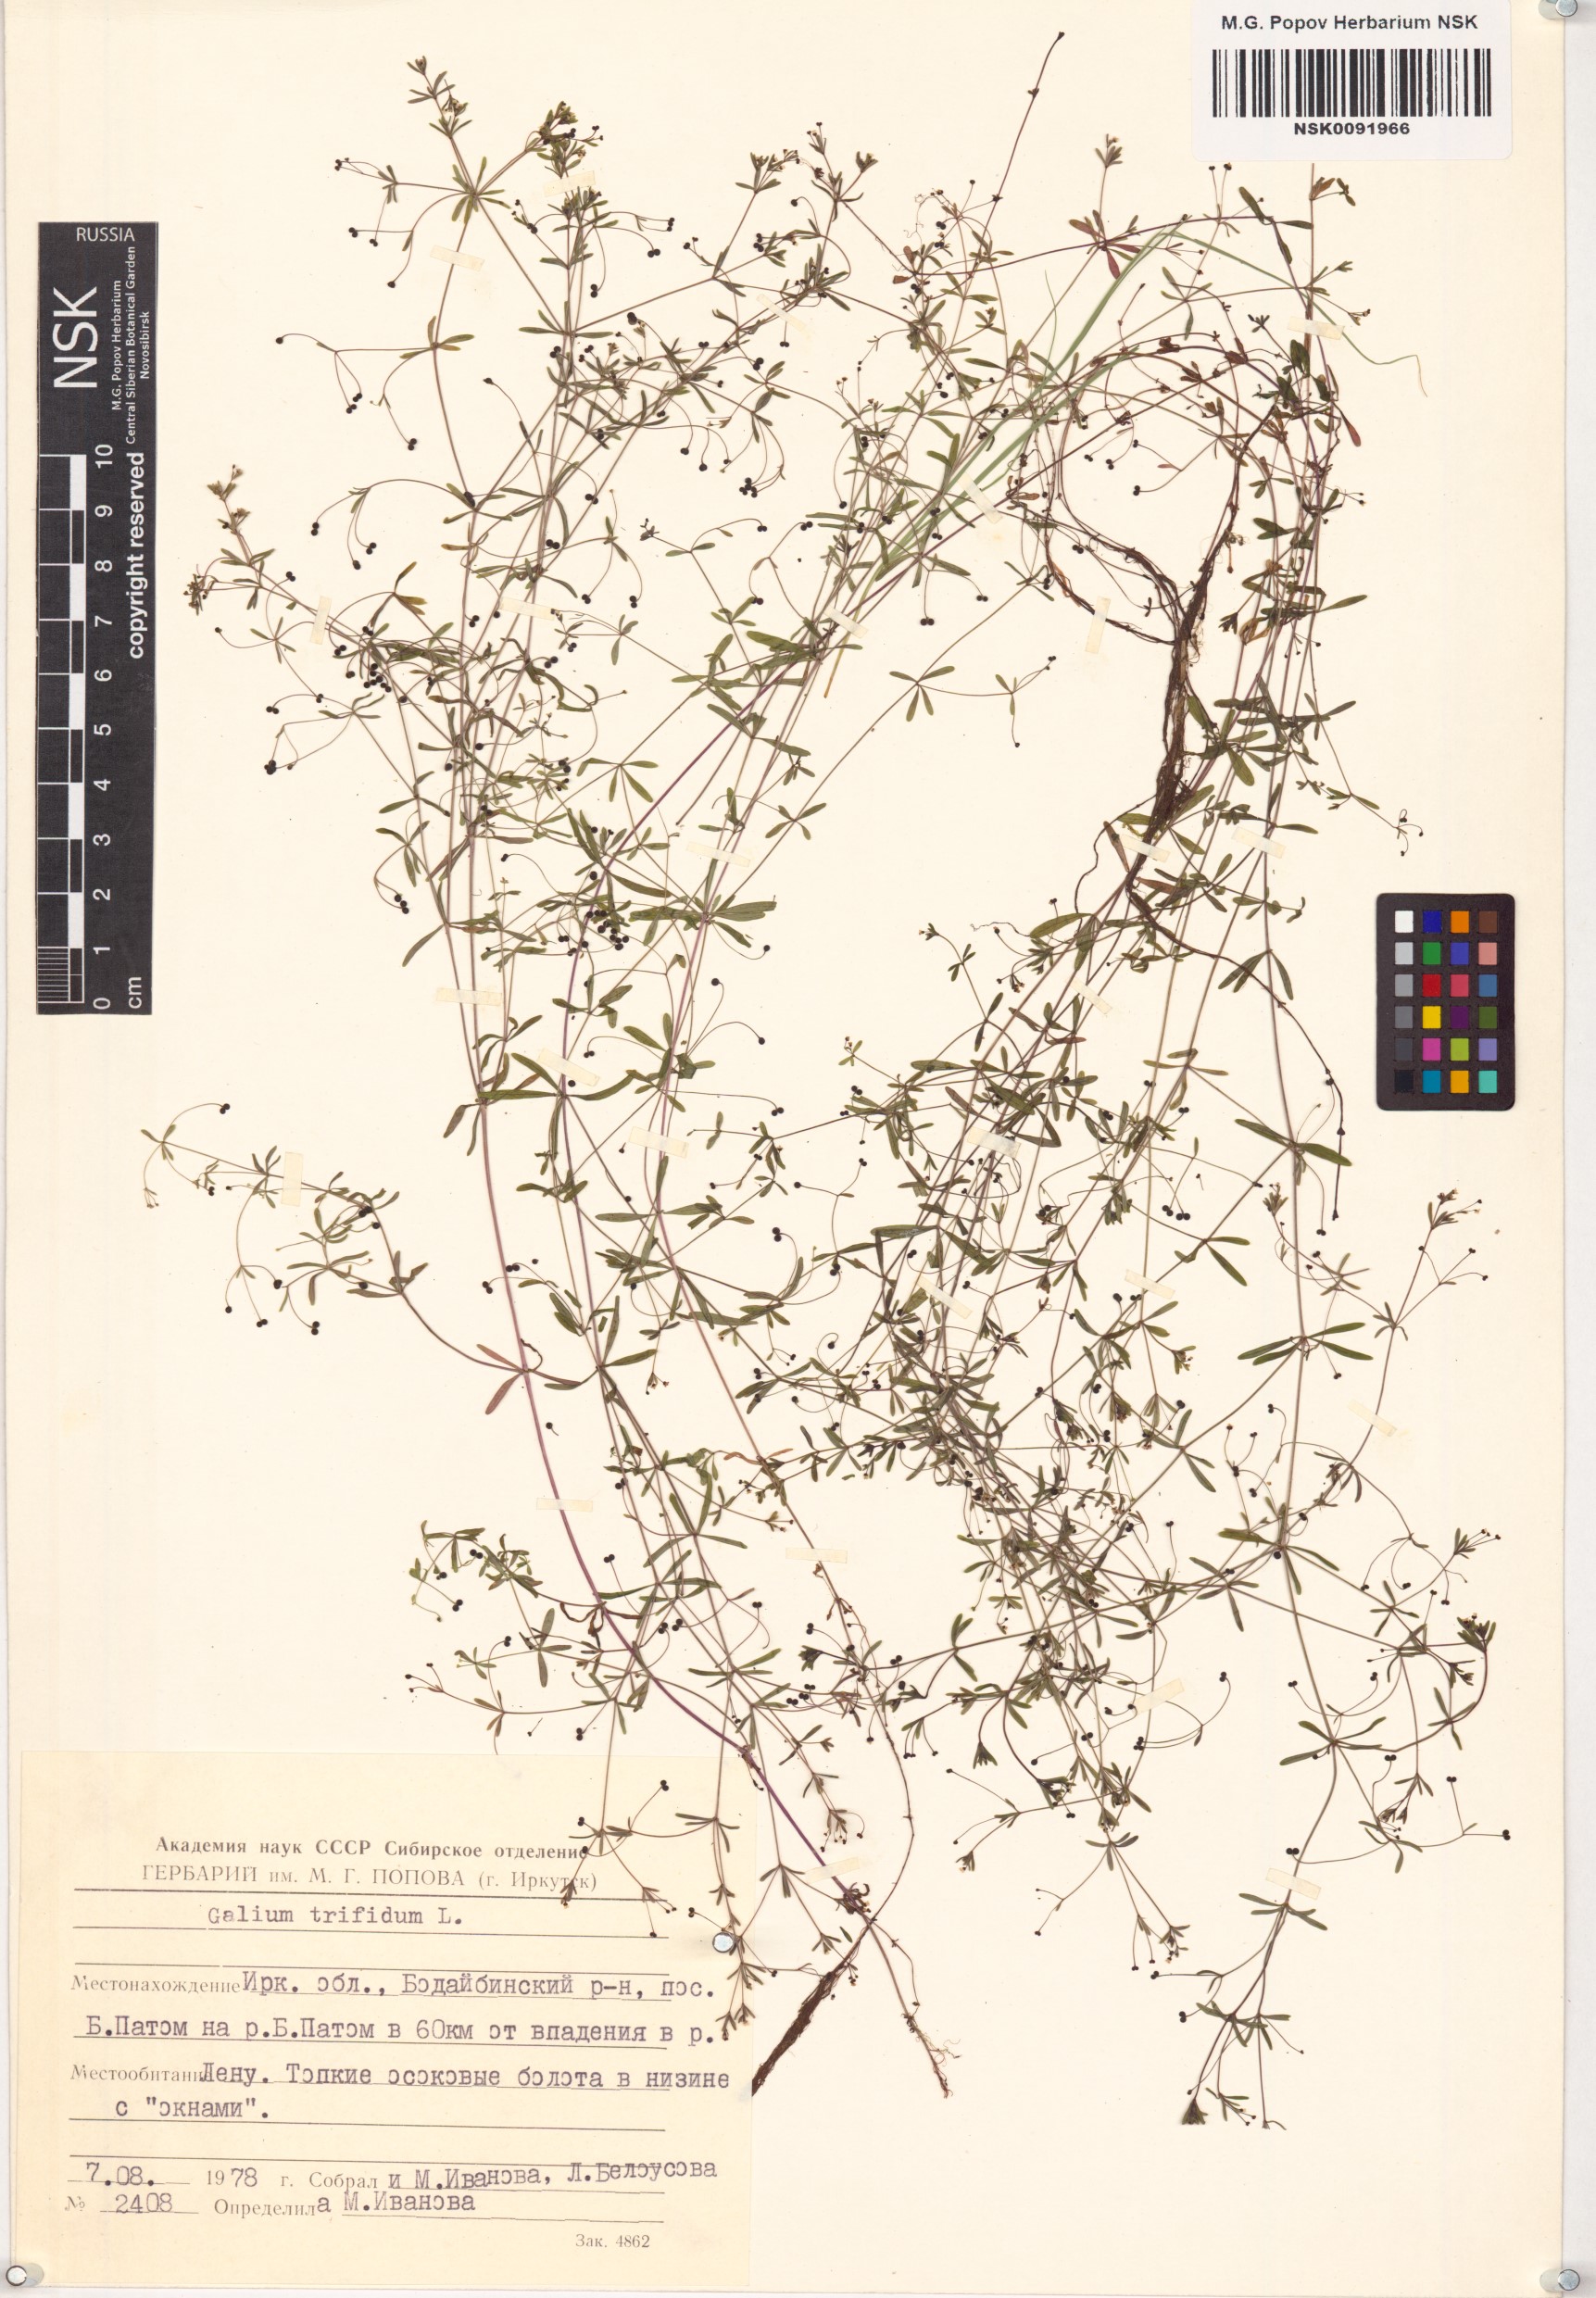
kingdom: Plantae
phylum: Tracheophyta
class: Magnoliopsida
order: Gentianales
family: Rubiaceae
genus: Galium
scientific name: Galium trifidum
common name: Small bedstraw
